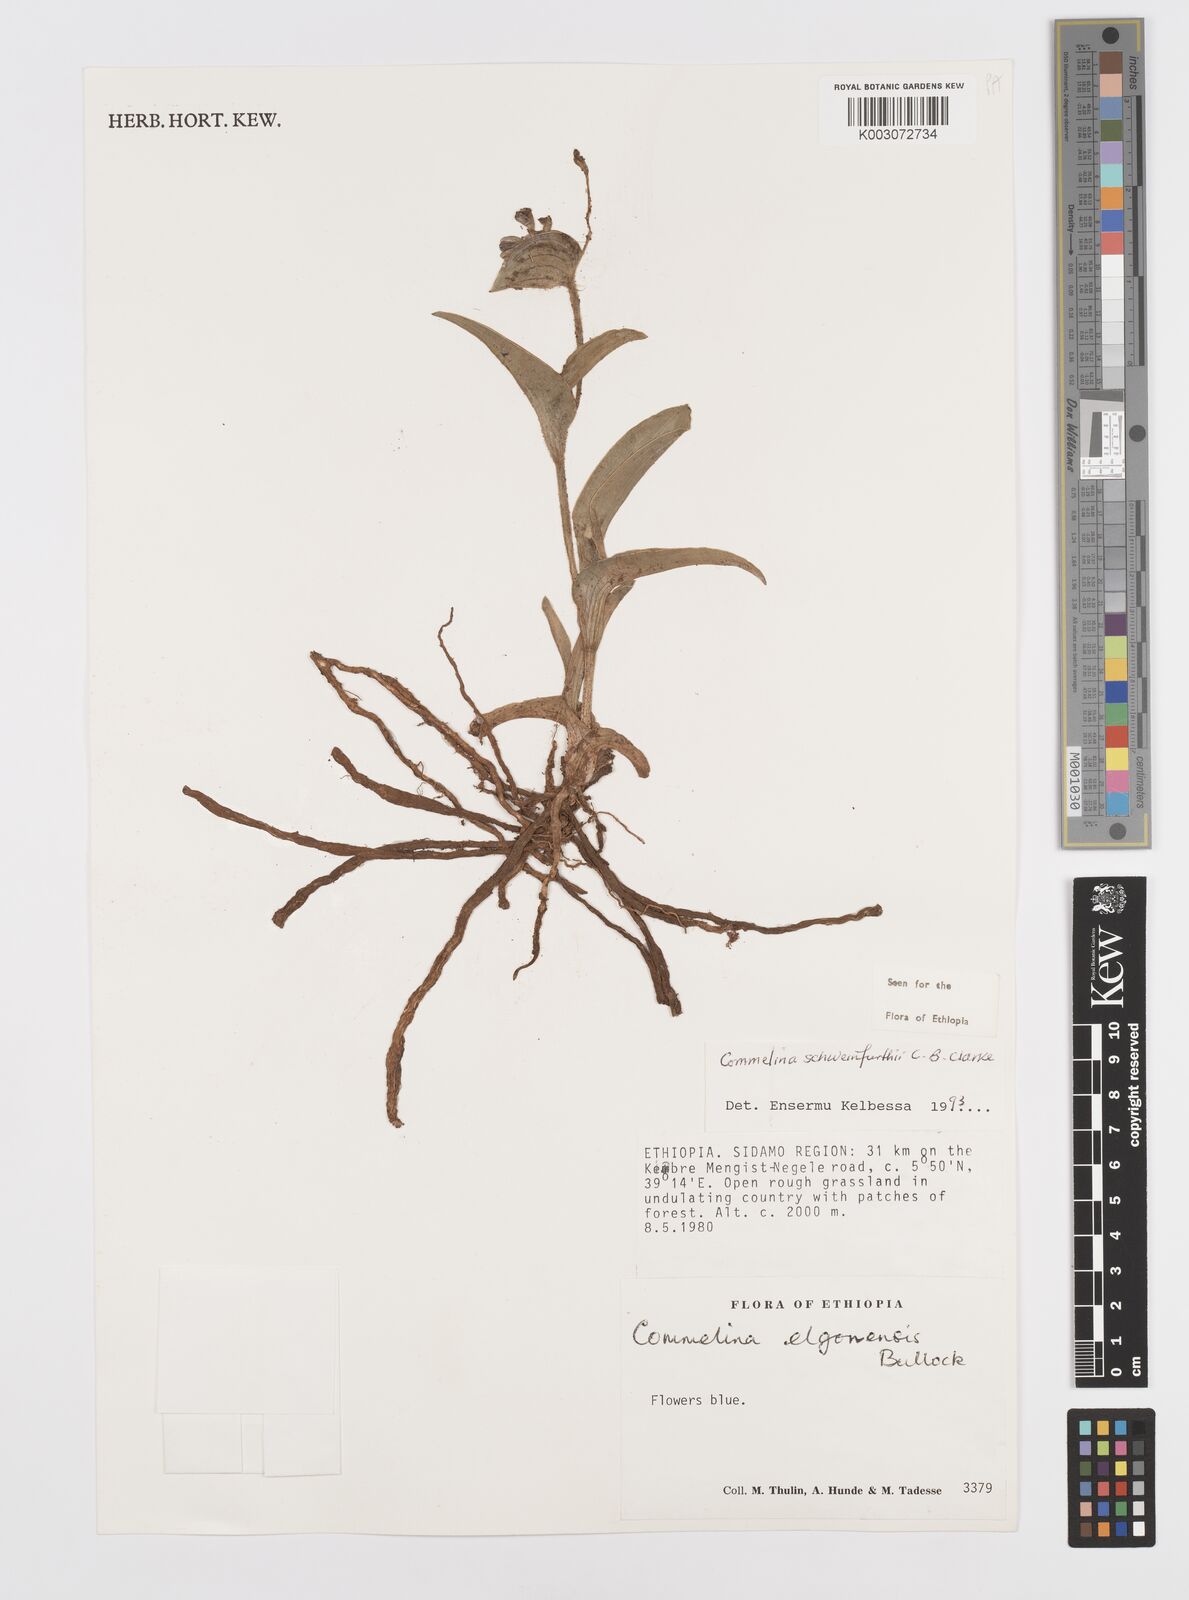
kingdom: Plantae
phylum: Tracheophyta
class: Liliopsida
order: Commelinales
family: Commelinaceae
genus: Commelina
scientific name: Commelina schweinfurthii
